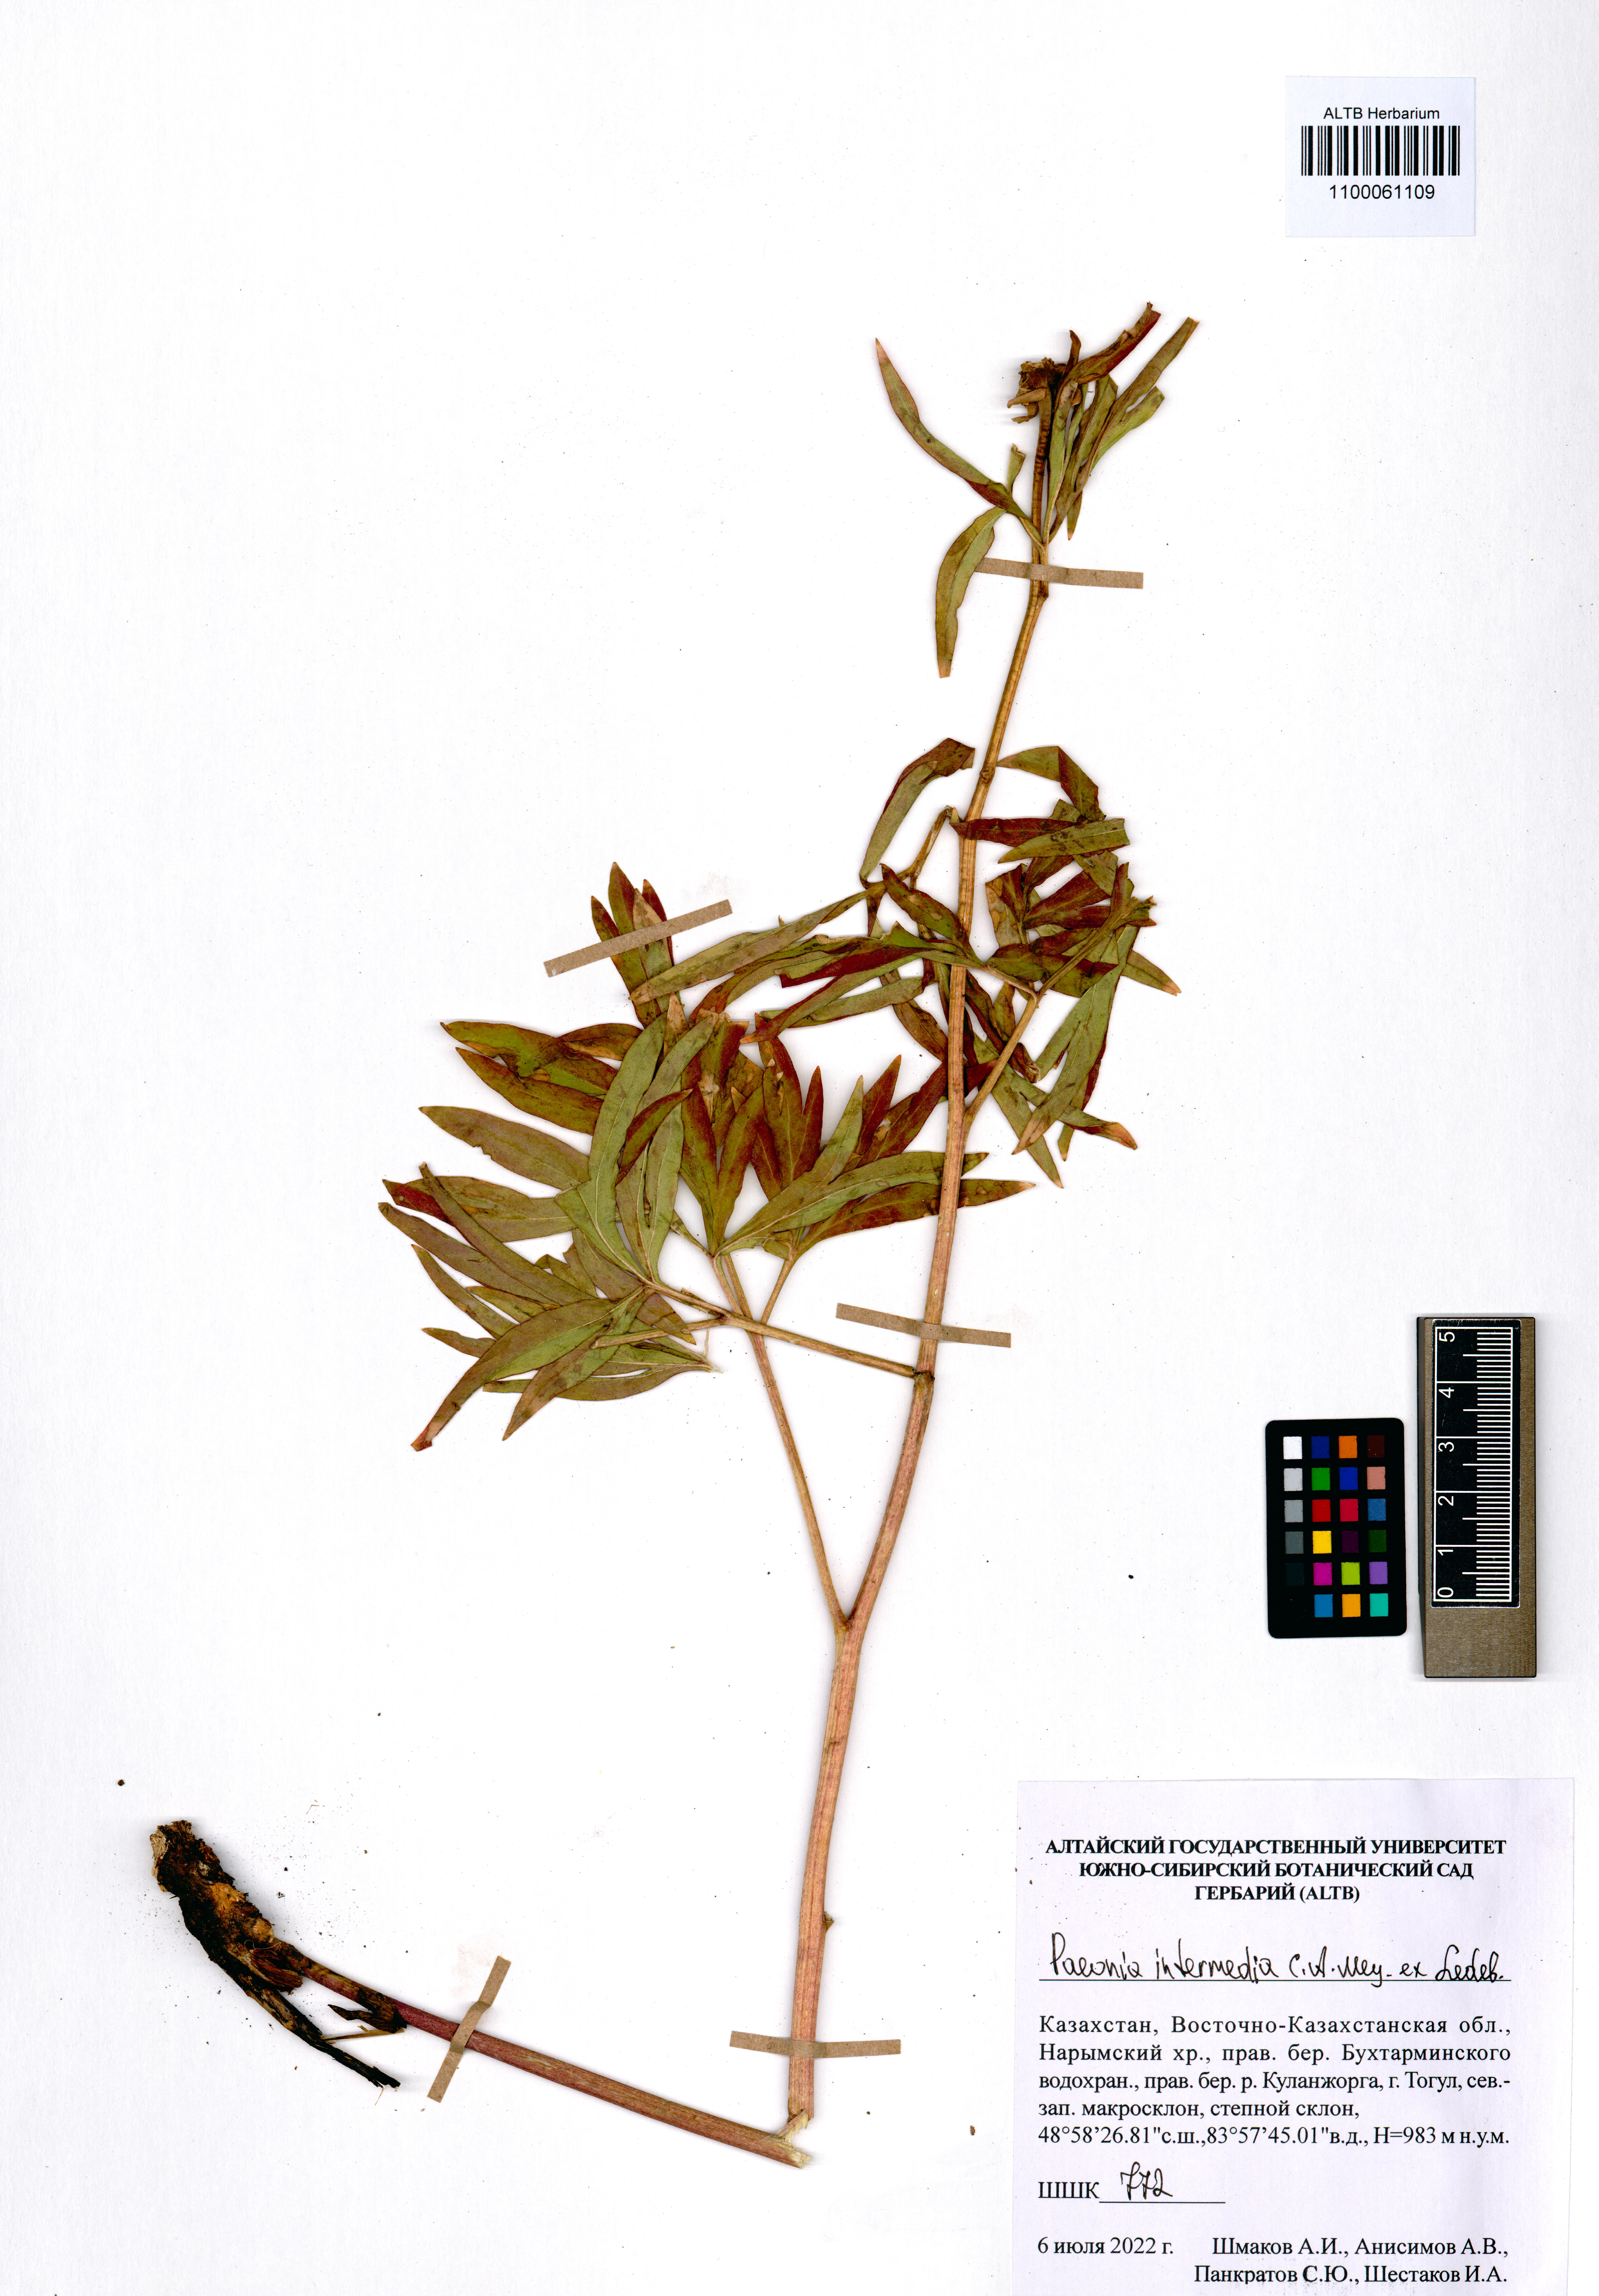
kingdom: Plantae
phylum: Tracheophyta
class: Magnoliopsida
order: Saxifragales
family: Paeoniaceae
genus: Paeonia
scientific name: Paeonia intermedia
